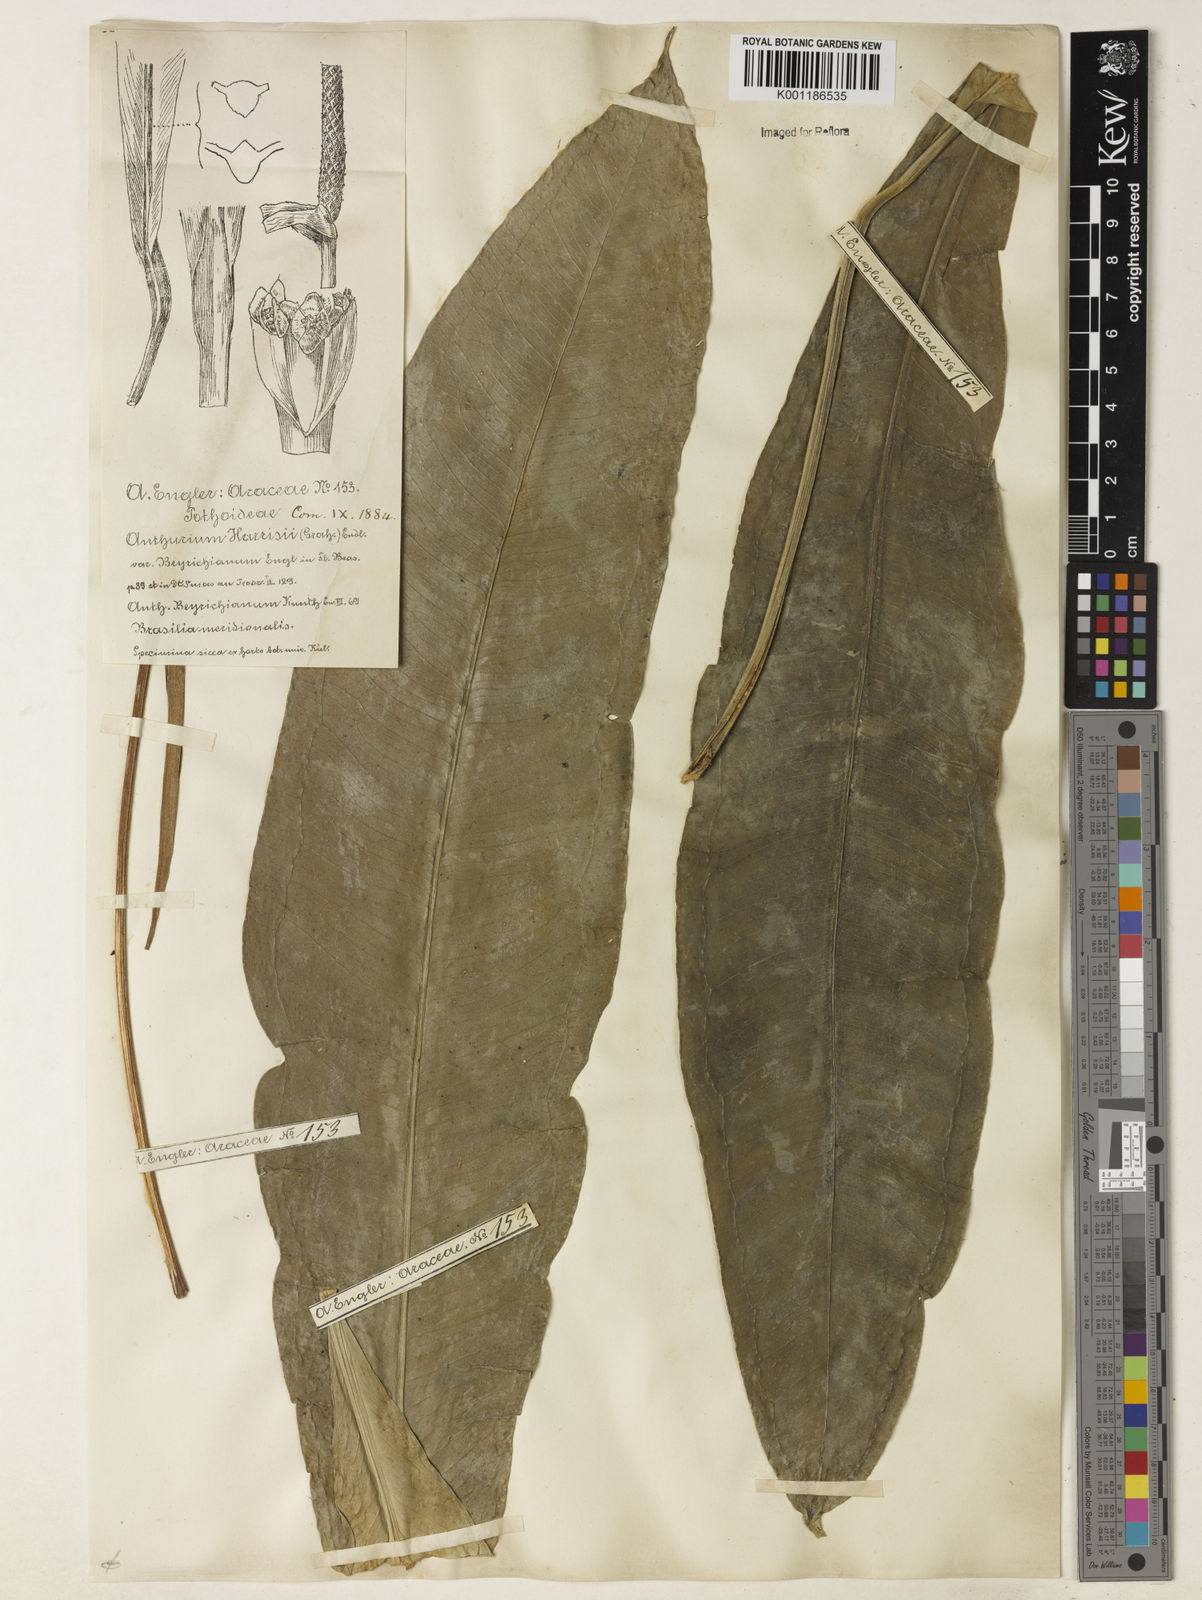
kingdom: Plantae
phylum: Tracheophyta
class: Liliopsida
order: Alismatales
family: Araceae
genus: Anthurium
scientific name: Anthurium intermedium
